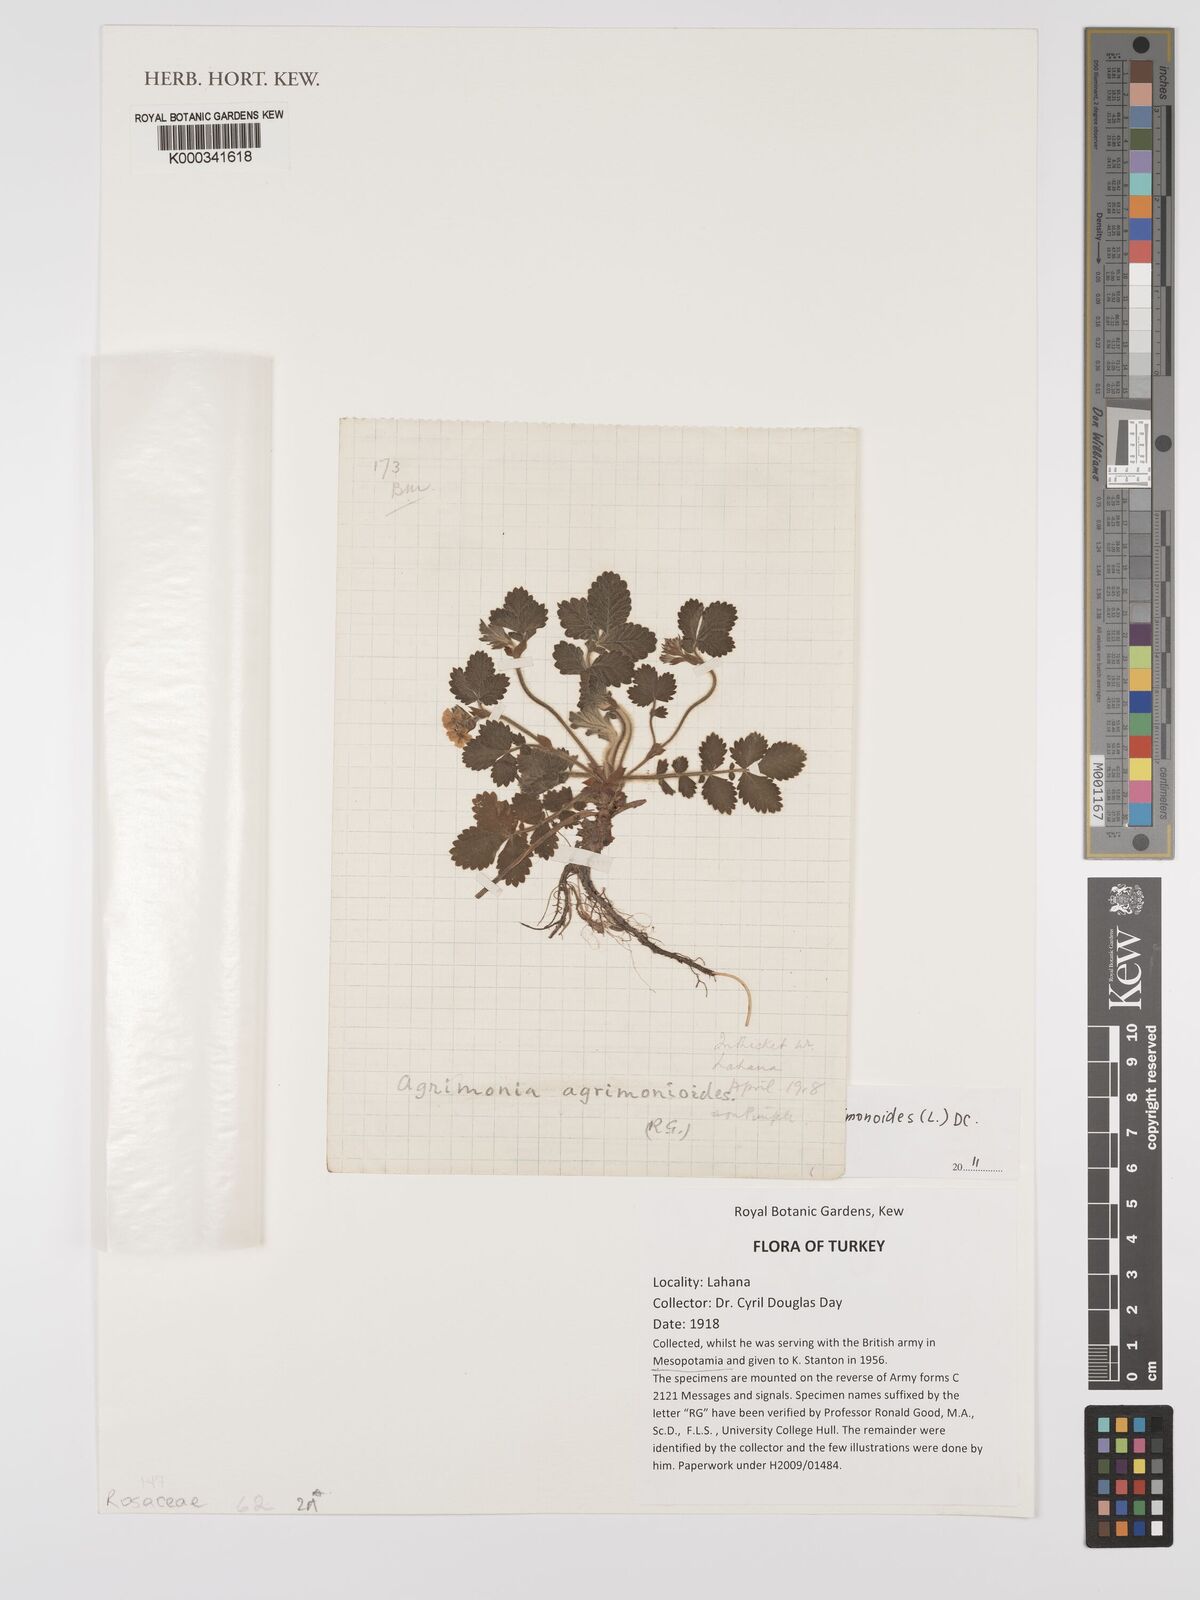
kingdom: Plantae
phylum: Tracheophyta
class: Magnoliopsida
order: Rosales
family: Rosaceae
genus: Aremonia
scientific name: Aremonia agrimonoides
